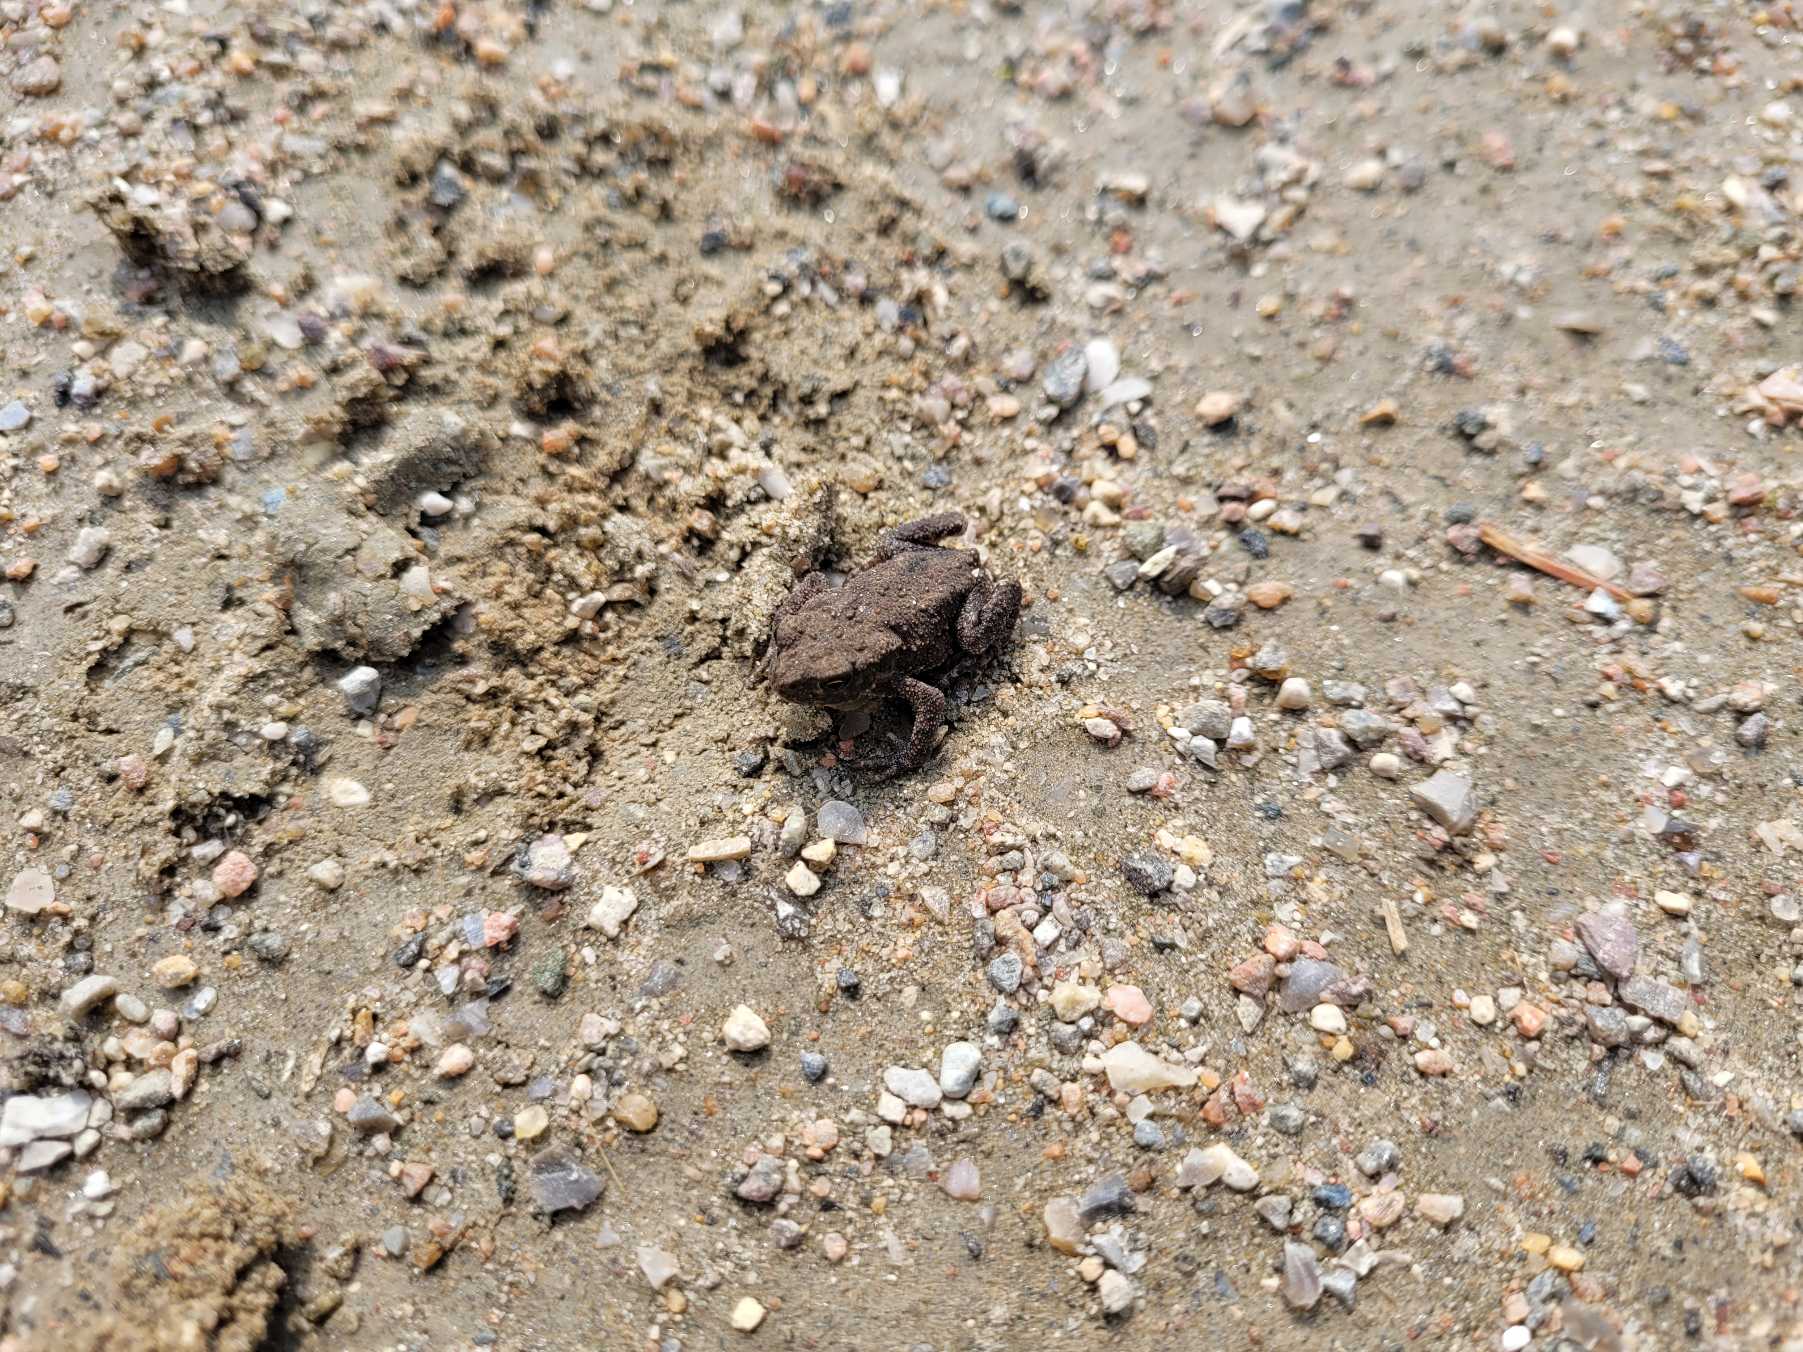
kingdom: Animalia
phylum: Chordata
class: Amphibia
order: Anura
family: Bufonidae
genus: Bufo
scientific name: Bufo bufo
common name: Skrubtudse
